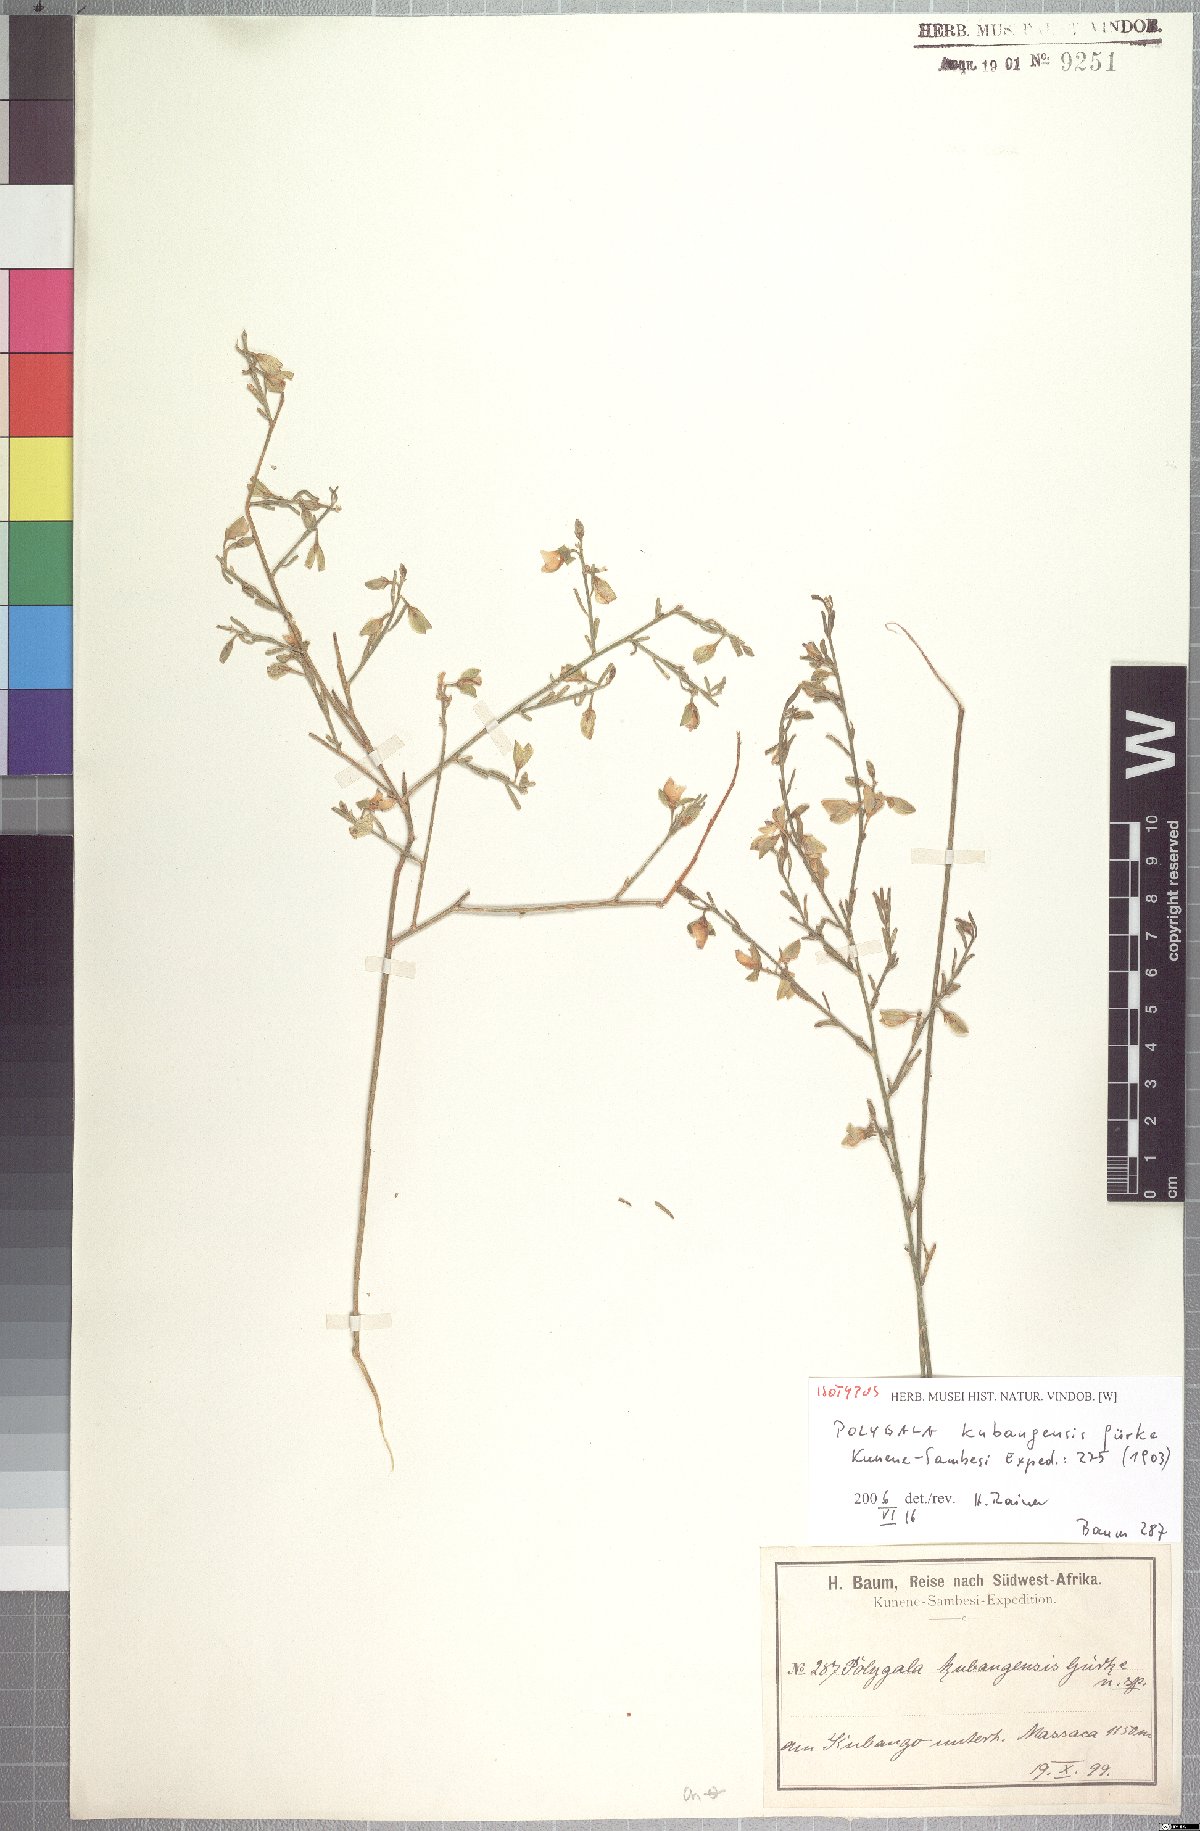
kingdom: Plantae
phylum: Tracheophyta
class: Magnoliopsida
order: Fabales
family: Polygalaceae
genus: Polygala
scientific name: Polygala kalahariensis
